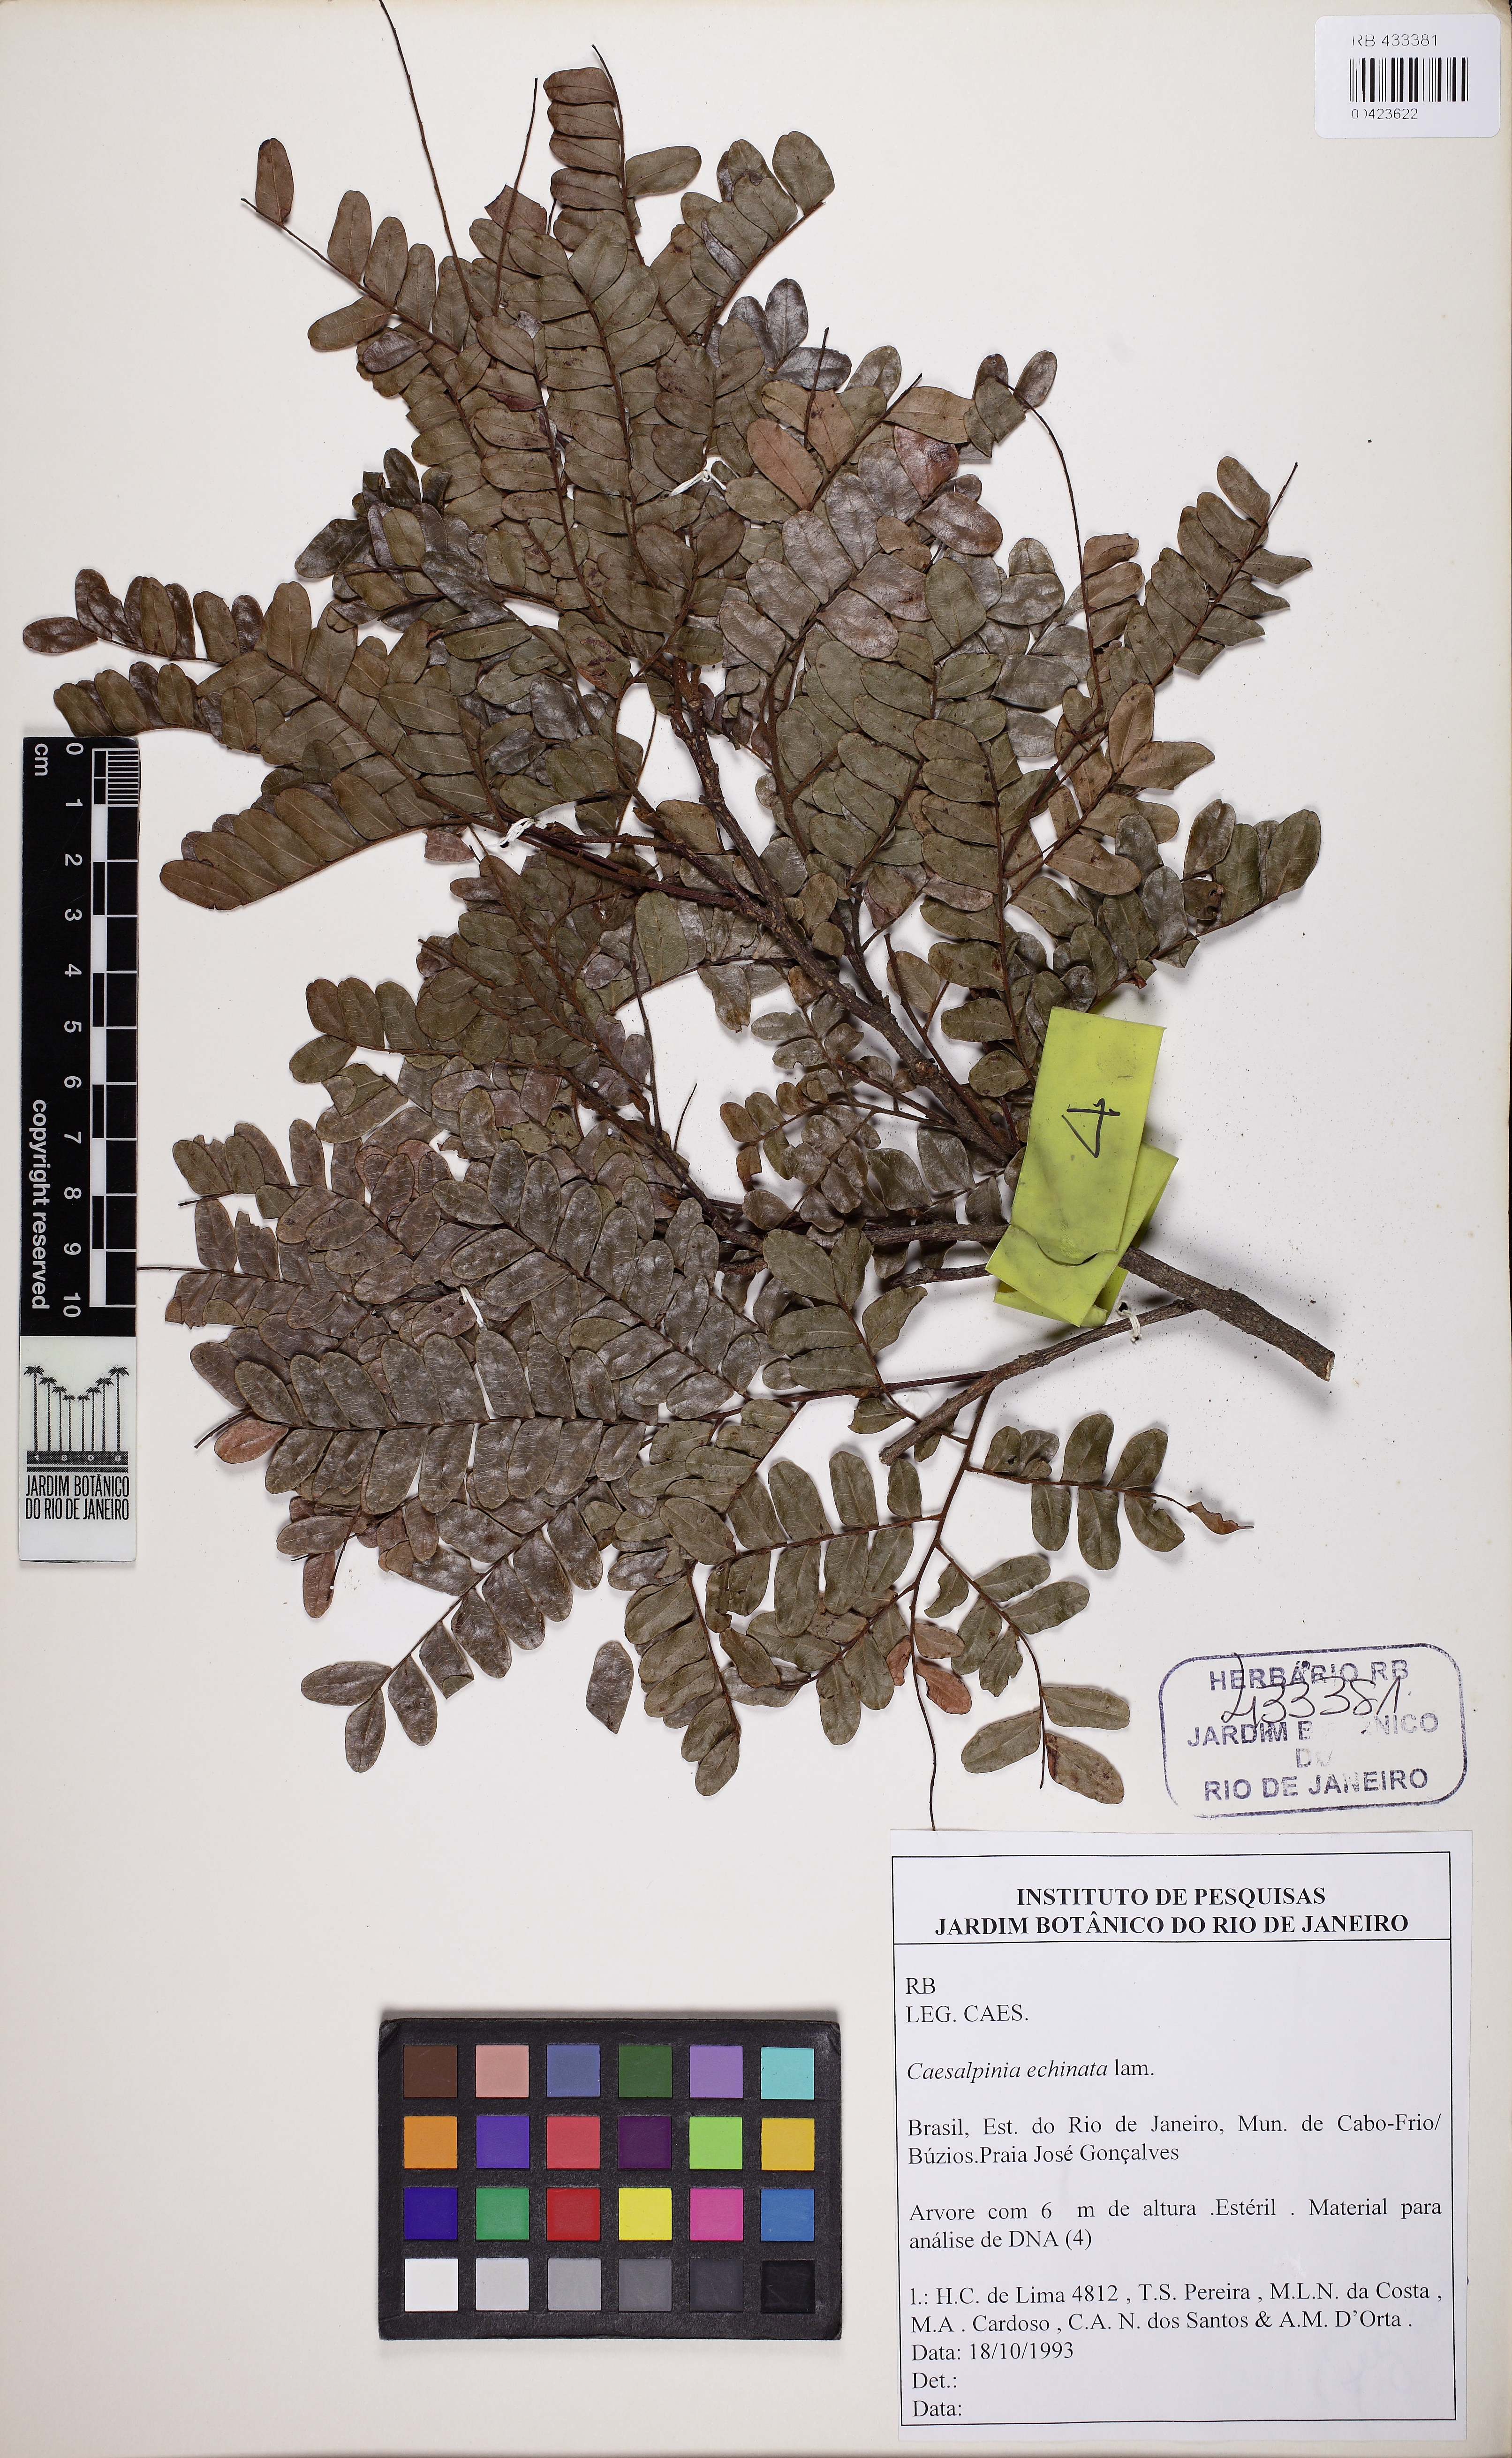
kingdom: Plantae
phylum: Tracheophyta
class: Magnoliopsida
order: Fabales
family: Fabaceae
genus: Paubrasilia
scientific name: Paubrasilia echinata
